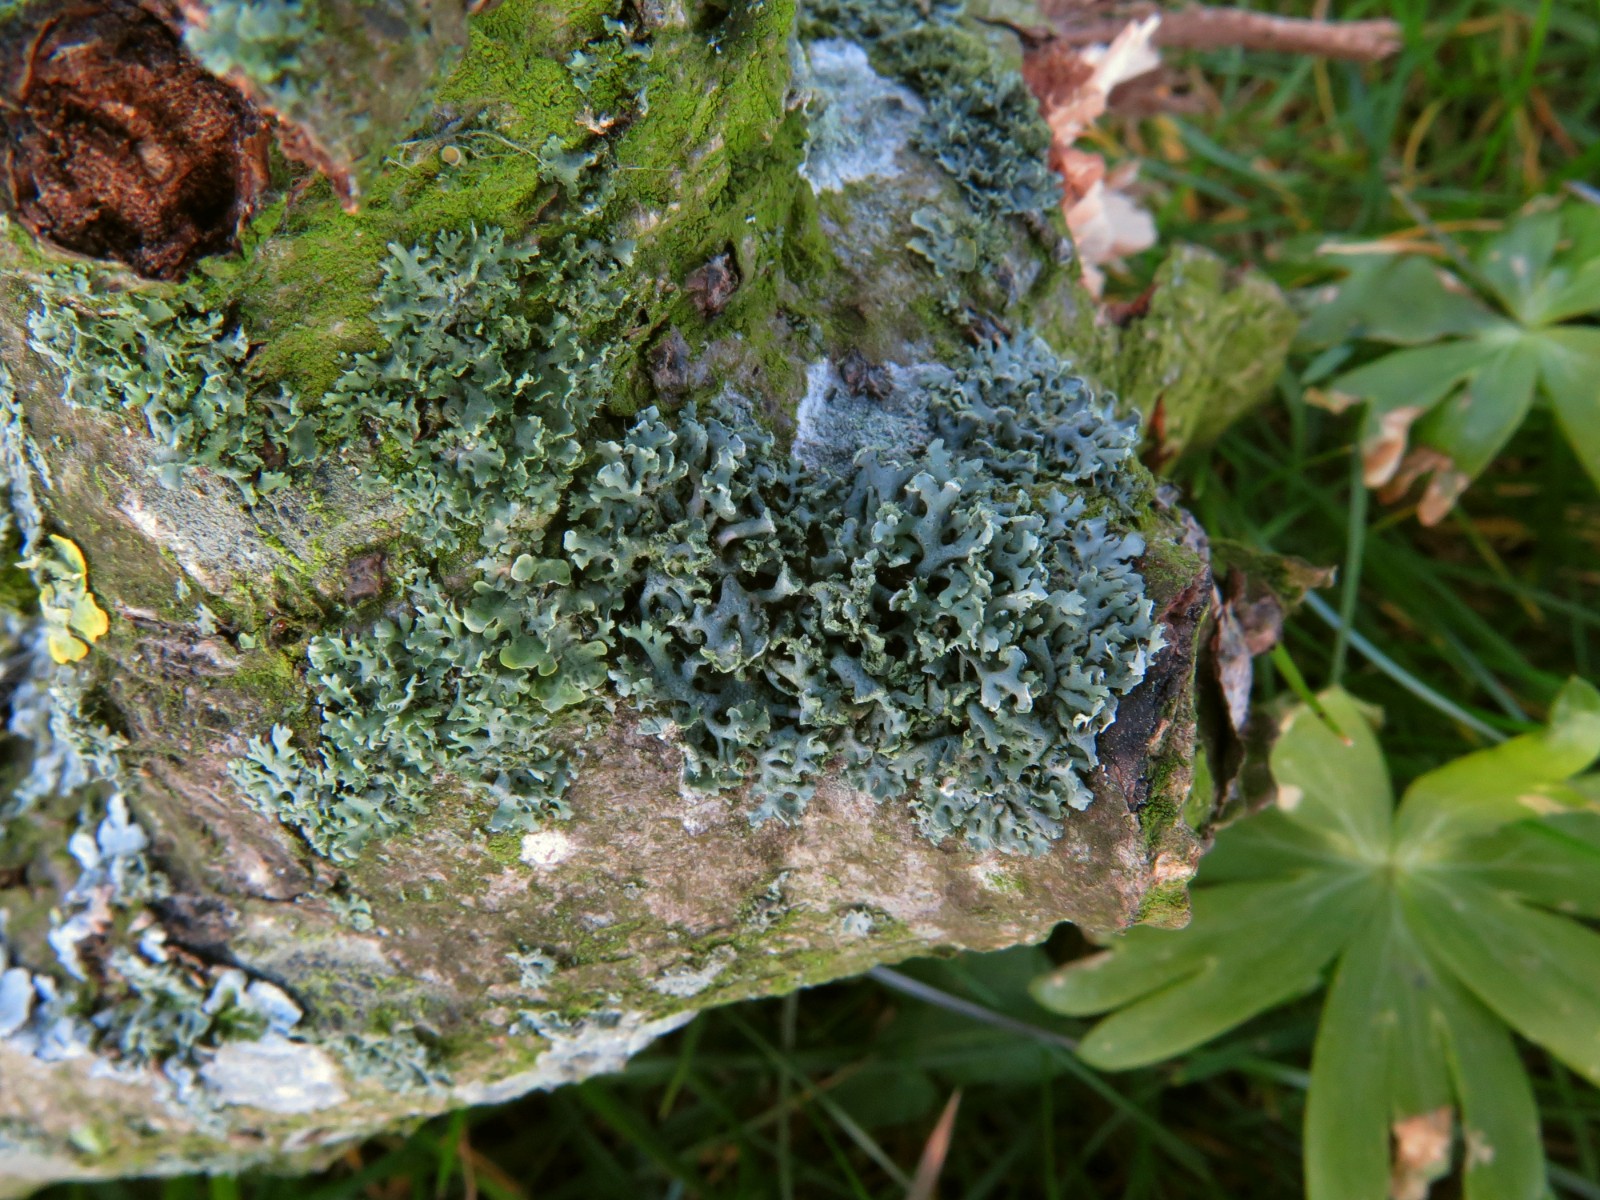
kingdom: Fungi
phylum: Ascomycota
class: Lecanoromycetes
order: Lecanorales
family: Parmeliaceae
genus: Hypogymnia
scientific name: Hypogymnia physodes
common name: almindelig kvistlav
